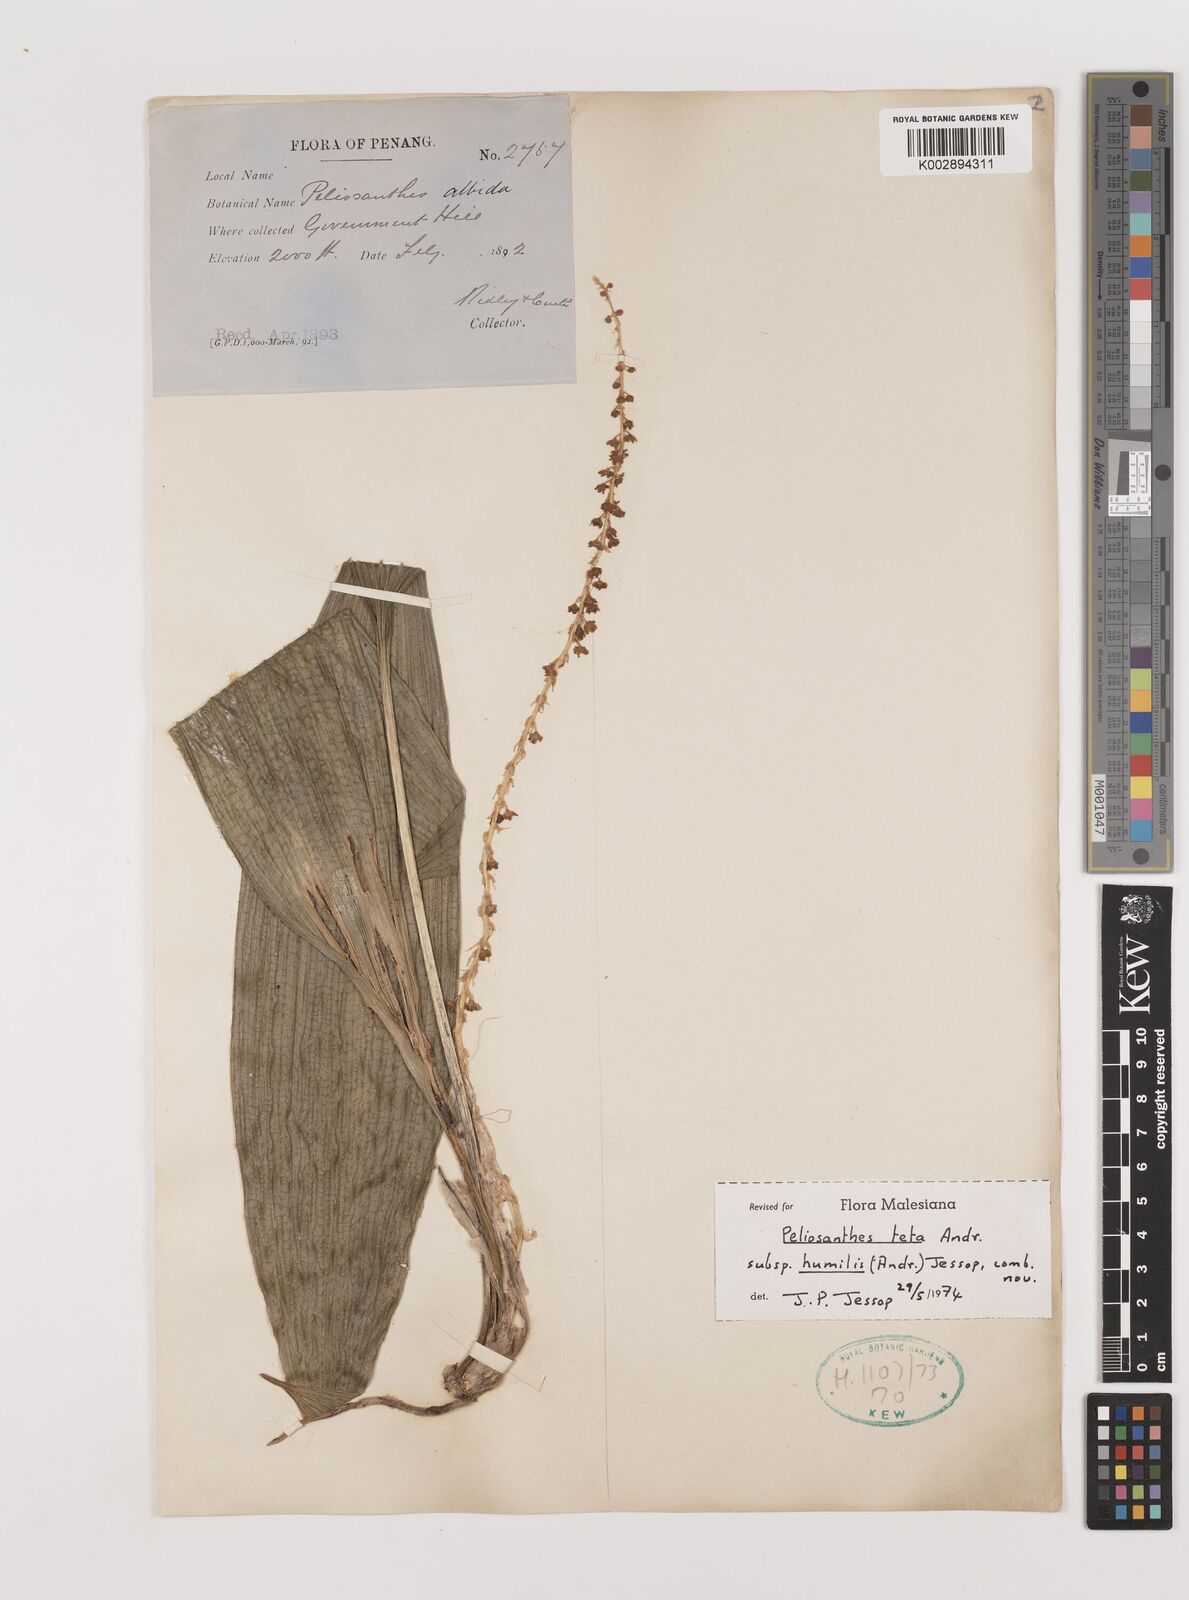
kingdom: Plantae
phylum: Tracheophyta
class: Liliopsida
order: Asparagales
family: Asparagaceae
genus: Peliosanthes
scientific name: Peliosanthes teta
